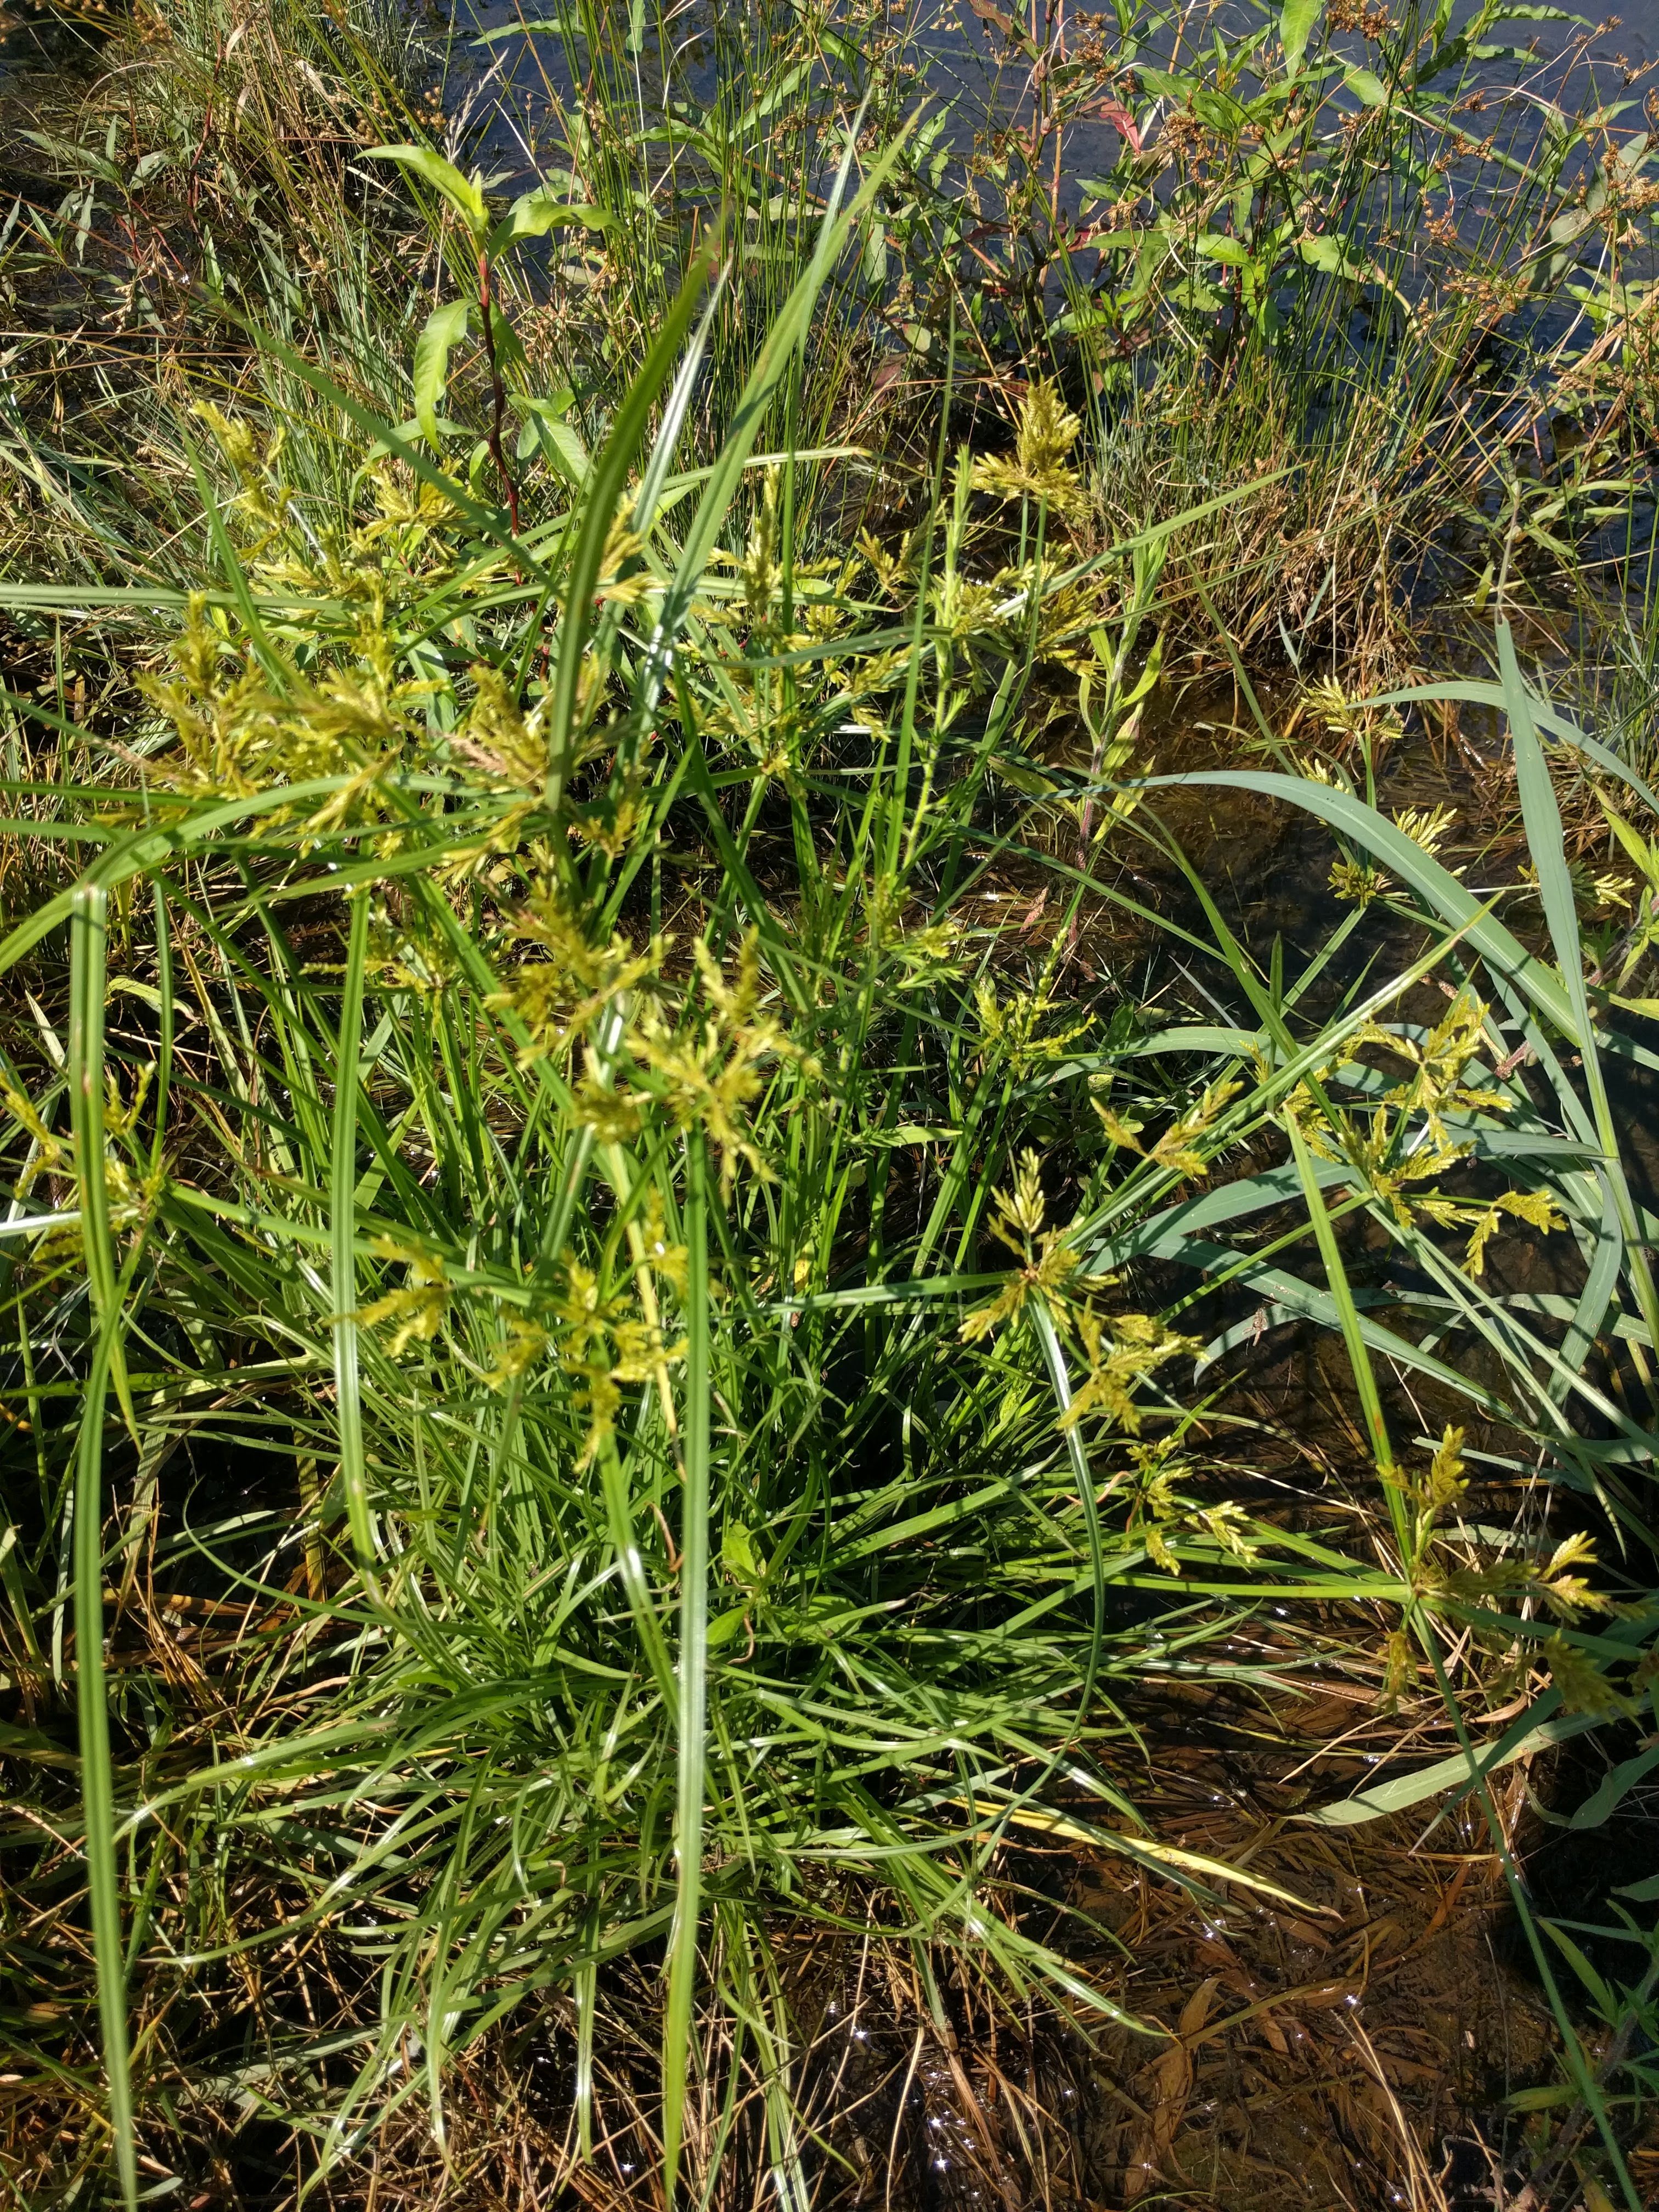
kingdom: Plantae
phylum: Tracheophyta
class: Liliopsida
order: Poales
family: Cyperaceae
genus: Cyperus
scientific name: Cyperus iria
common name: Ricefield flatsedge
